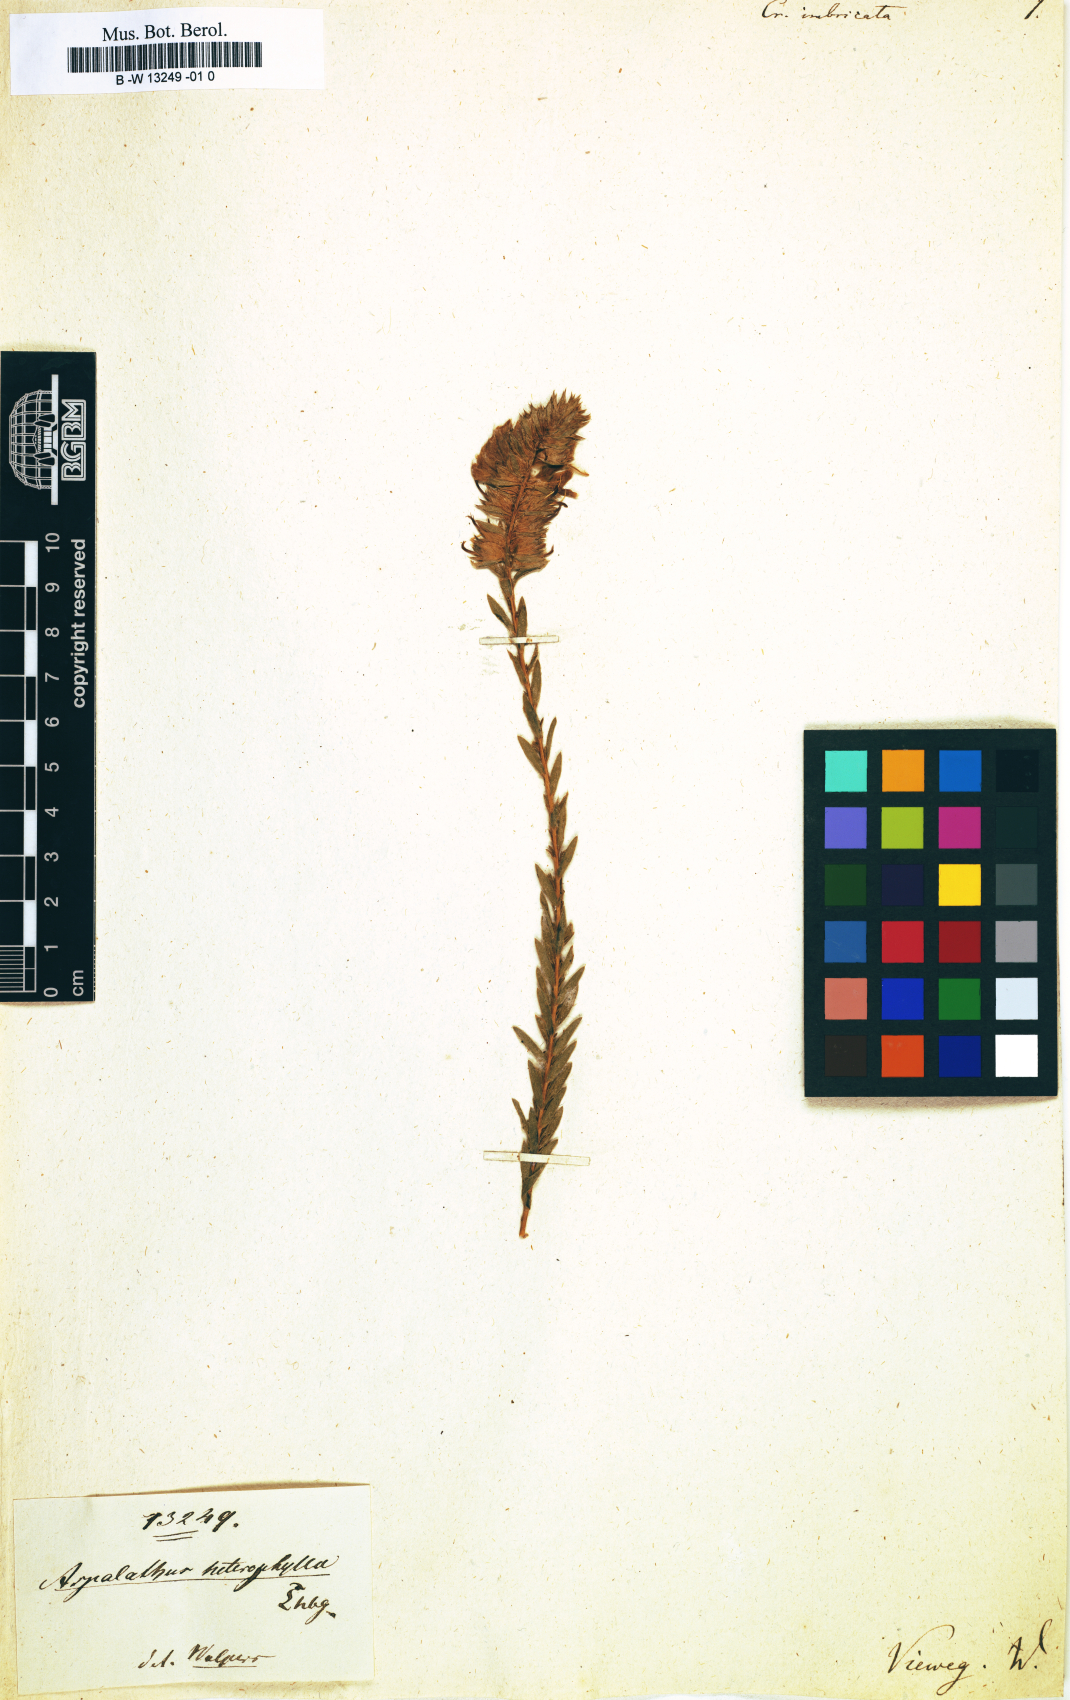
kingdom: Plantae
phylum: Tracheophyta
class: Magnoliopsida
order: Fabales
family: Fabaceae
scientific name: Fabaceae
